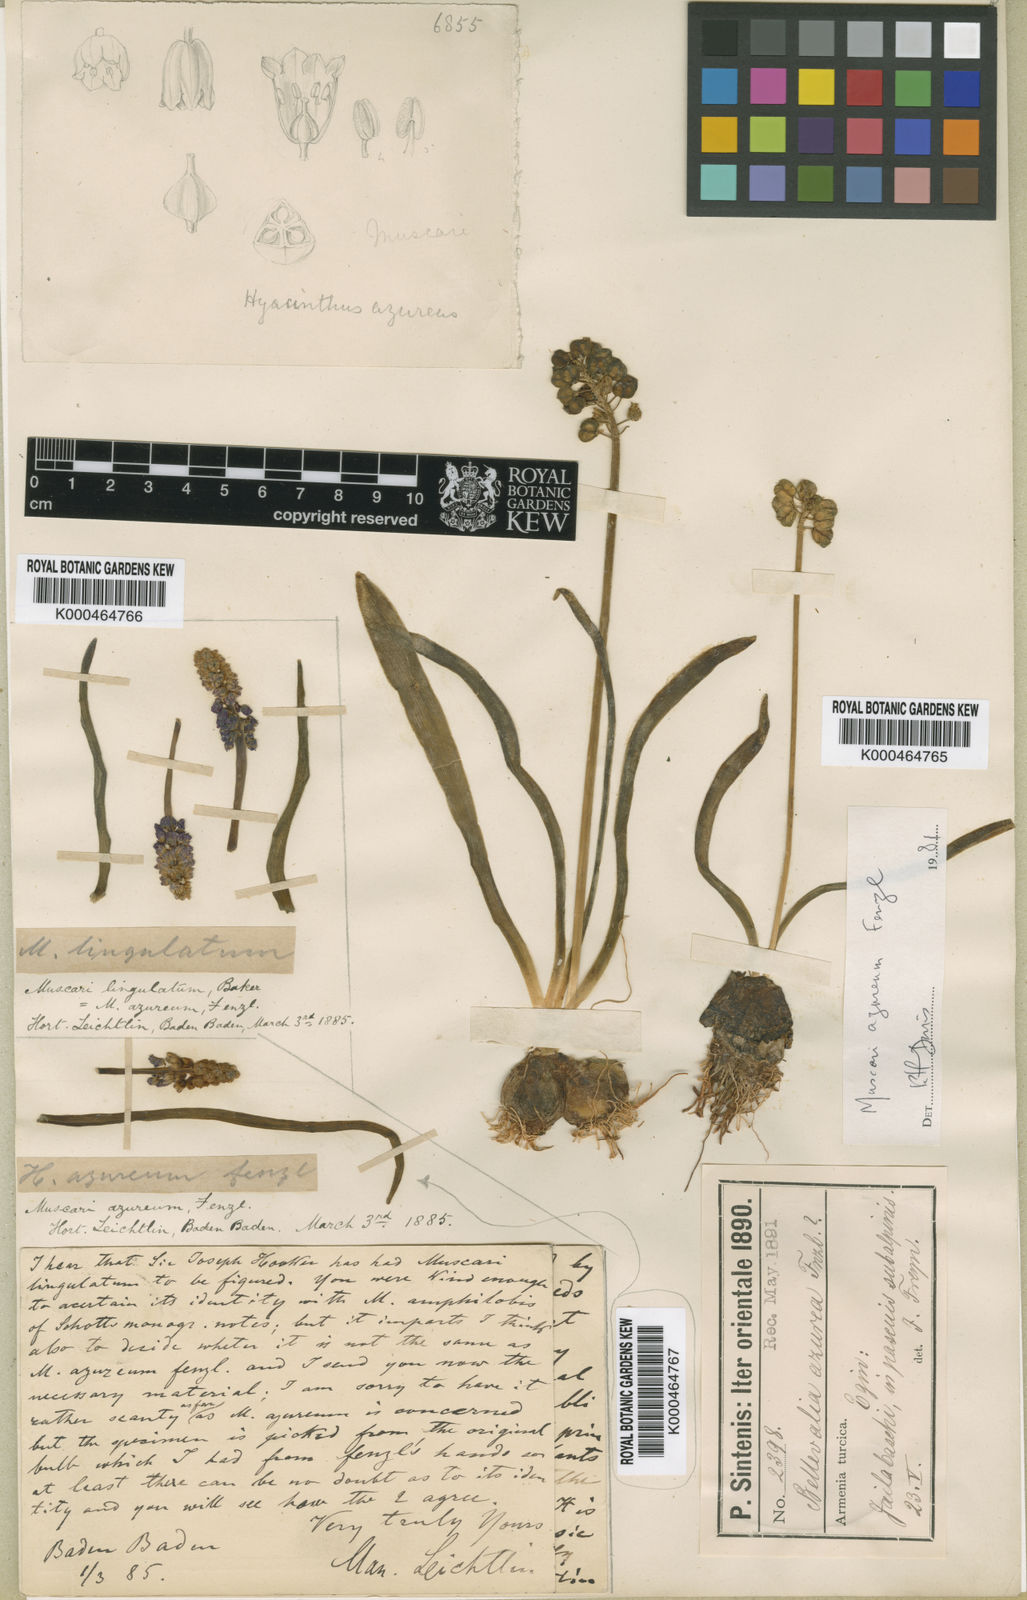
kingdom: Plantae
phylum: Tracheophyta
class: Liliopsida
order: Asparagales
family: Asparagaceae
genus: Muscari
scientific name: Muscari azureum
